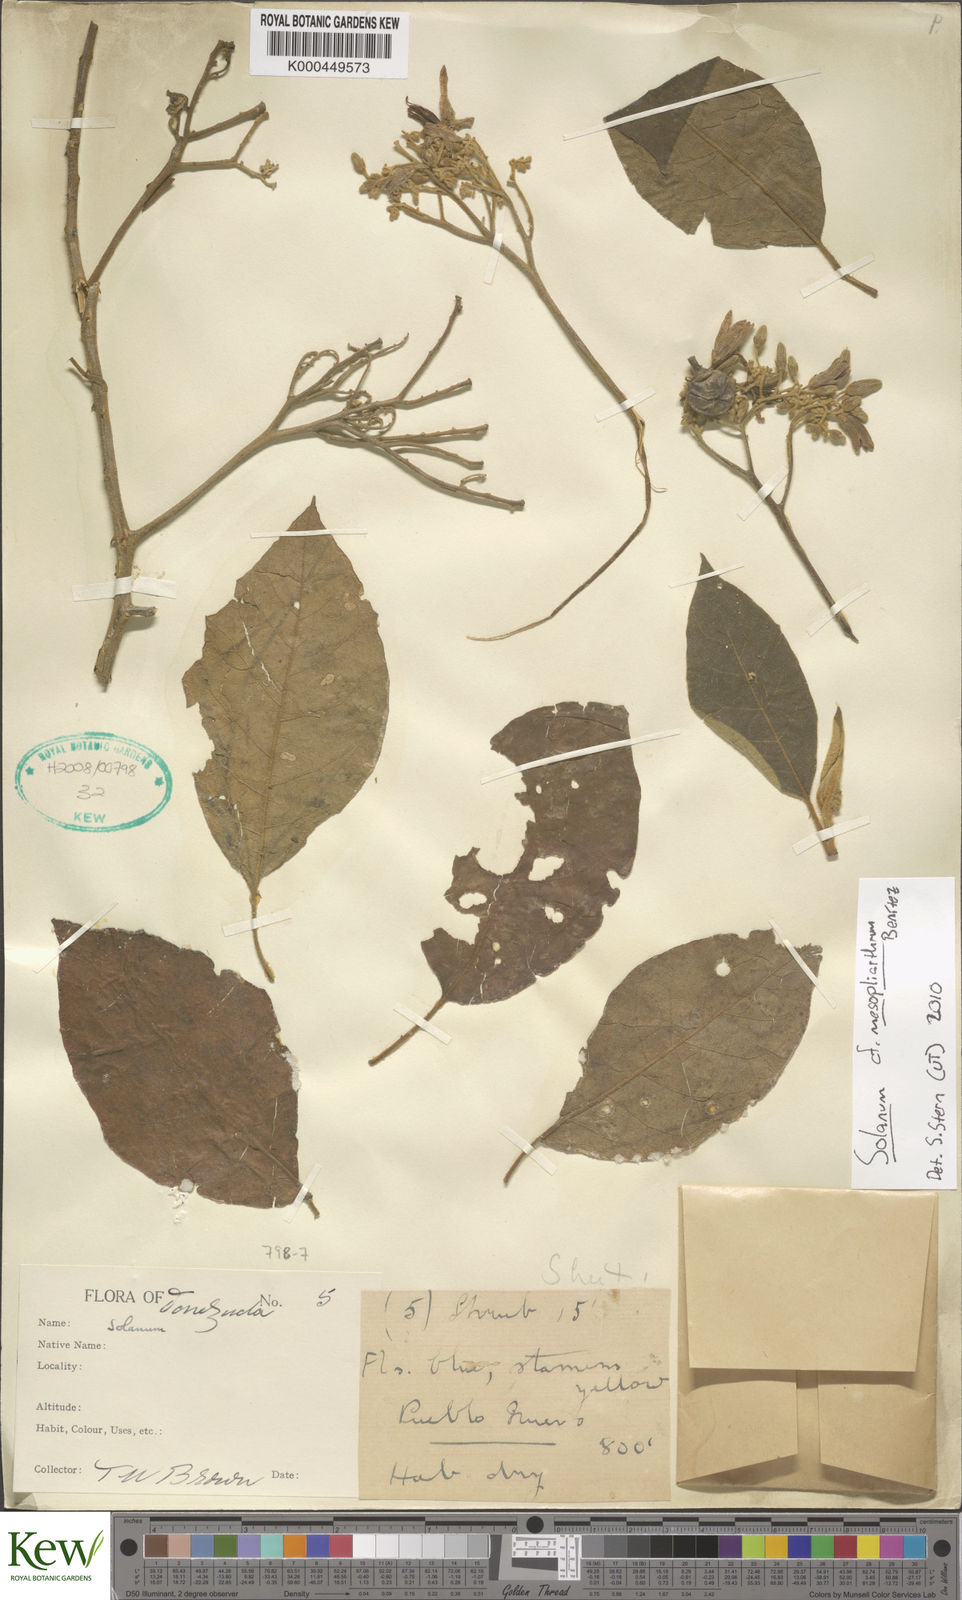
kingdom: Plantae
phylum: Tracheophyta
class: Magnoliopsida
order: Solanales
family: Solanaceae
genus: Solanum
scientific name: Solanum velutinum
